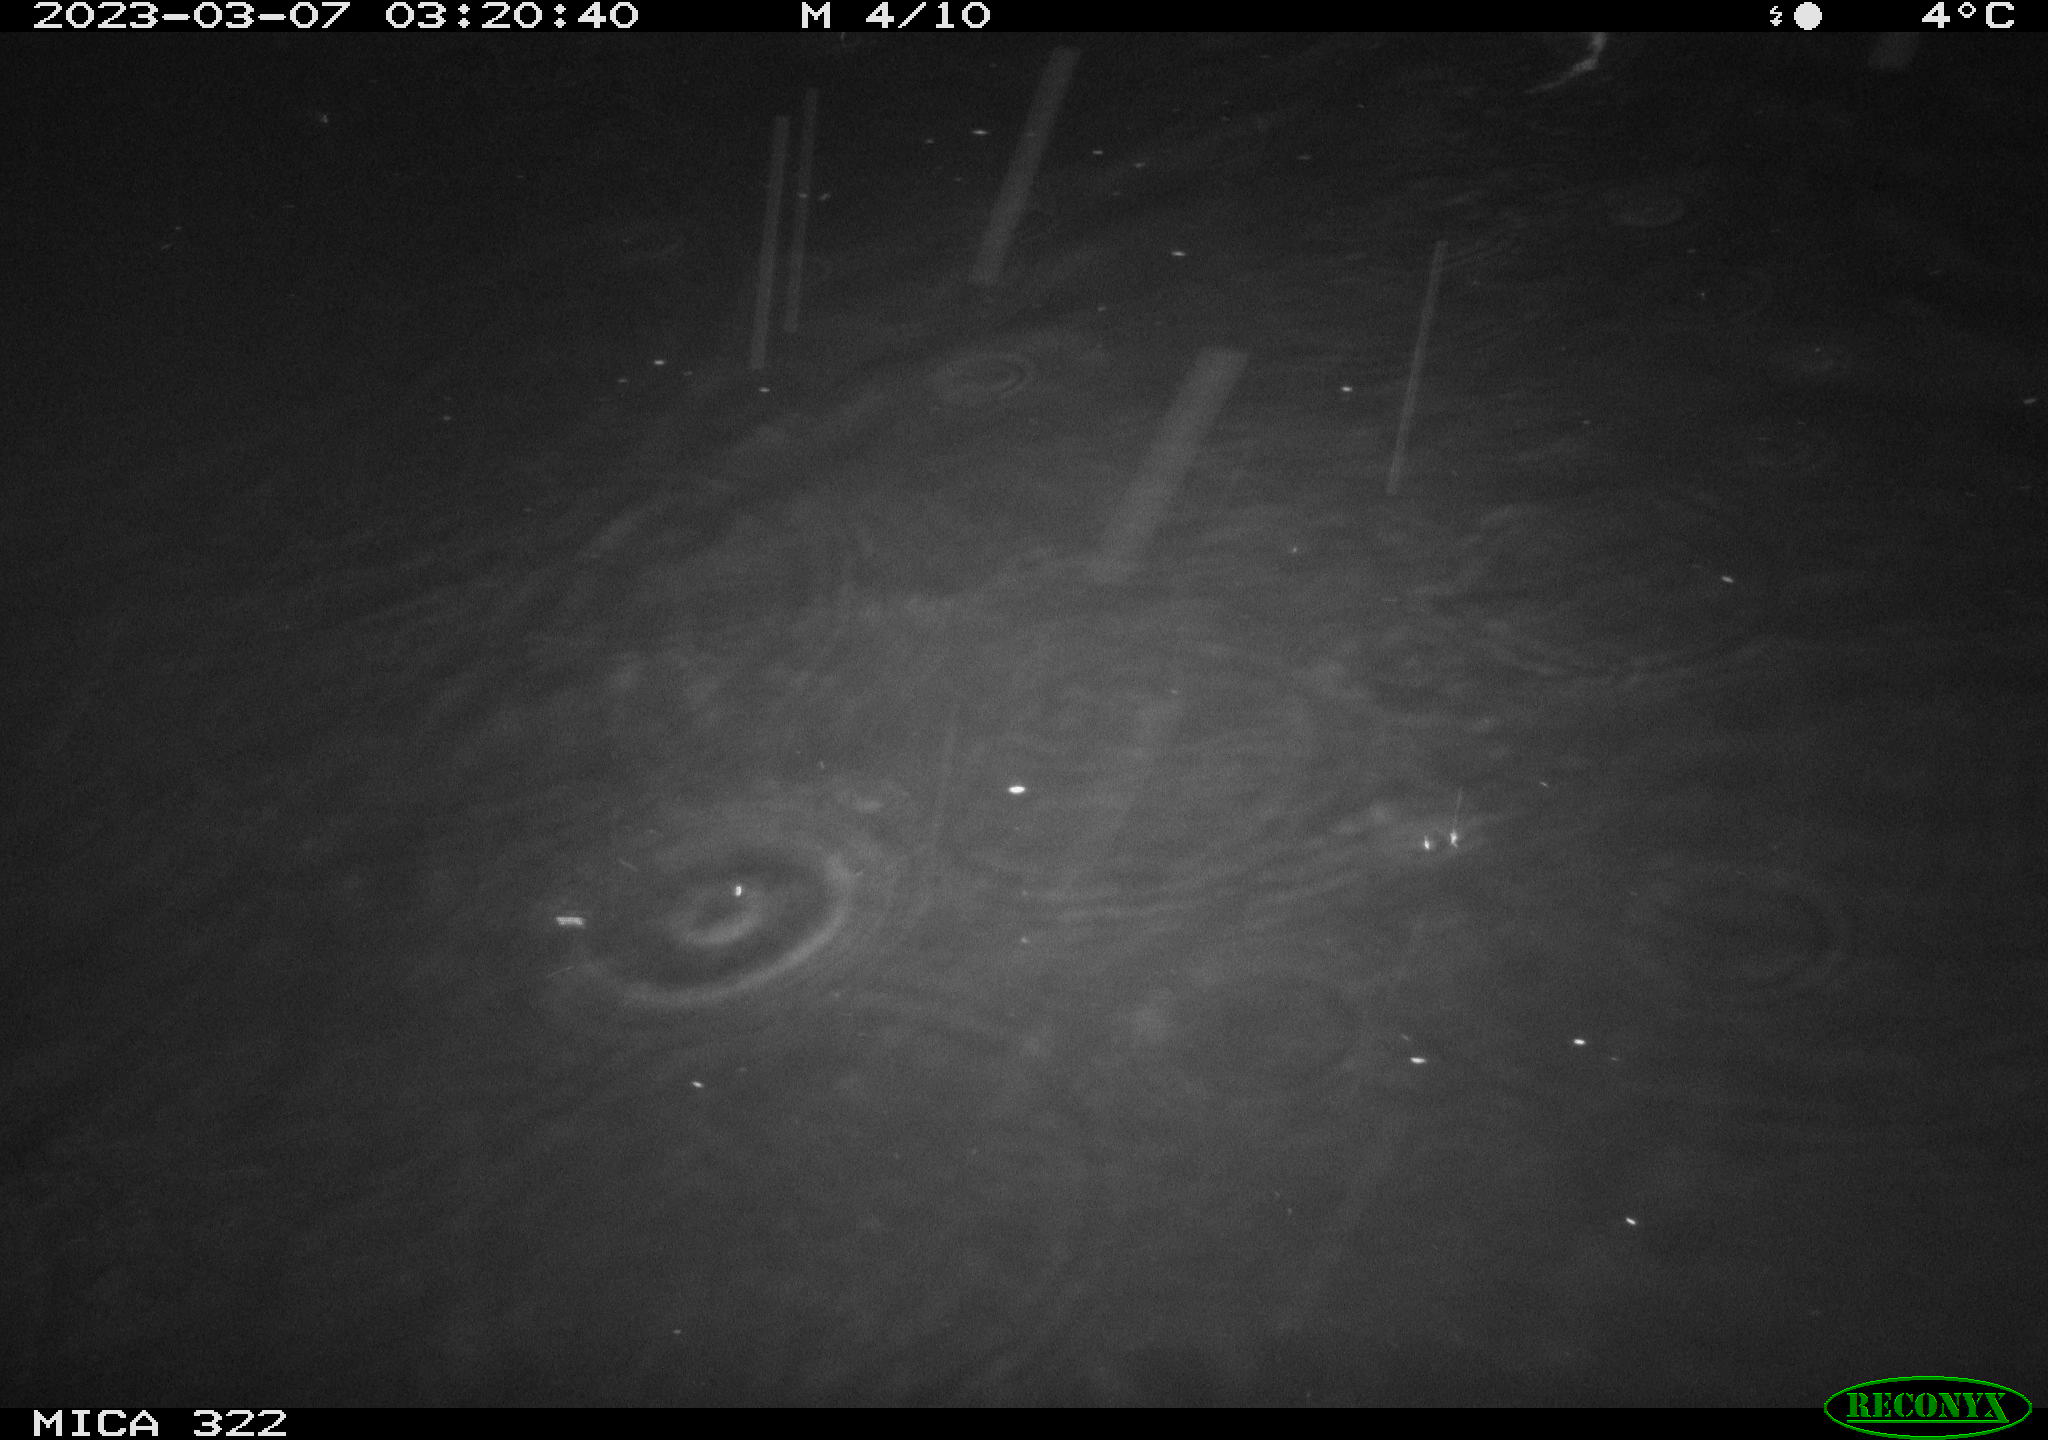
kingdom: Animalia
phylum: Chordata
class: Mammalia
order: Rodentia
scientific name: Rodentia
